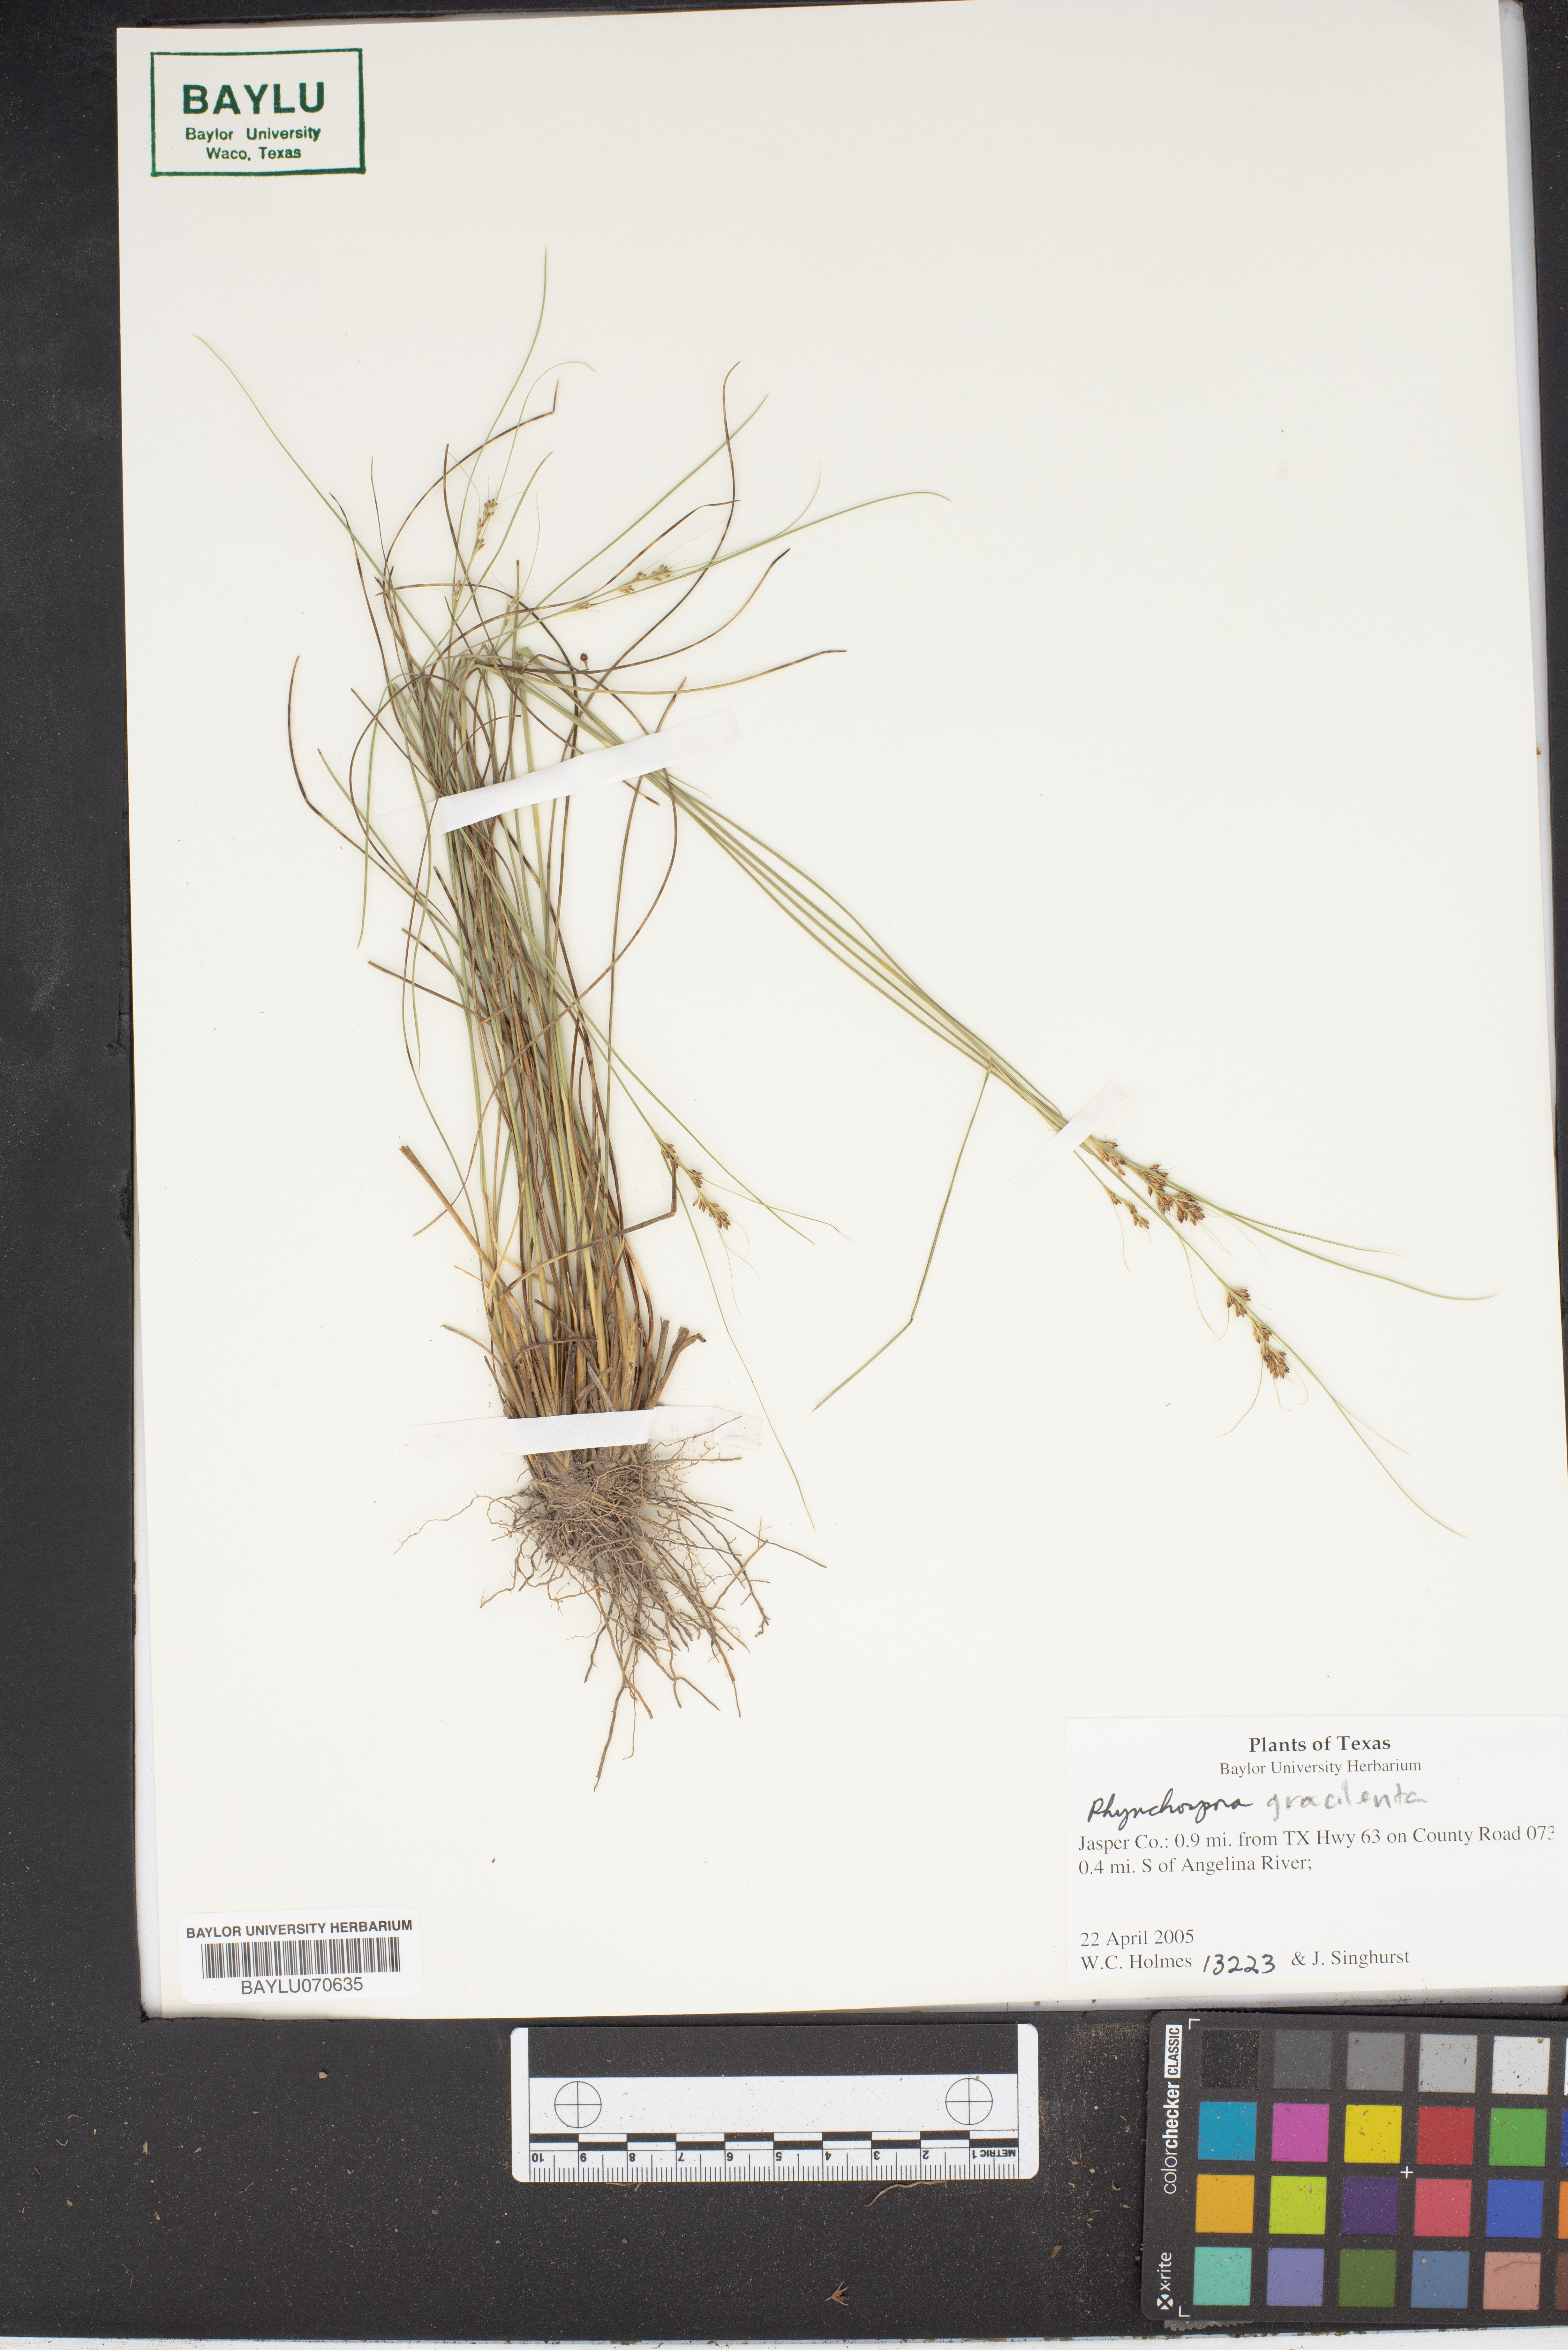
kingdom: Plantae
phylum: Tracheophyta
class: Liliopsida
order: Poales
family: Cyperaceae
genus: Rhynchospora
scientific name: Rhynchospora gracilenta
